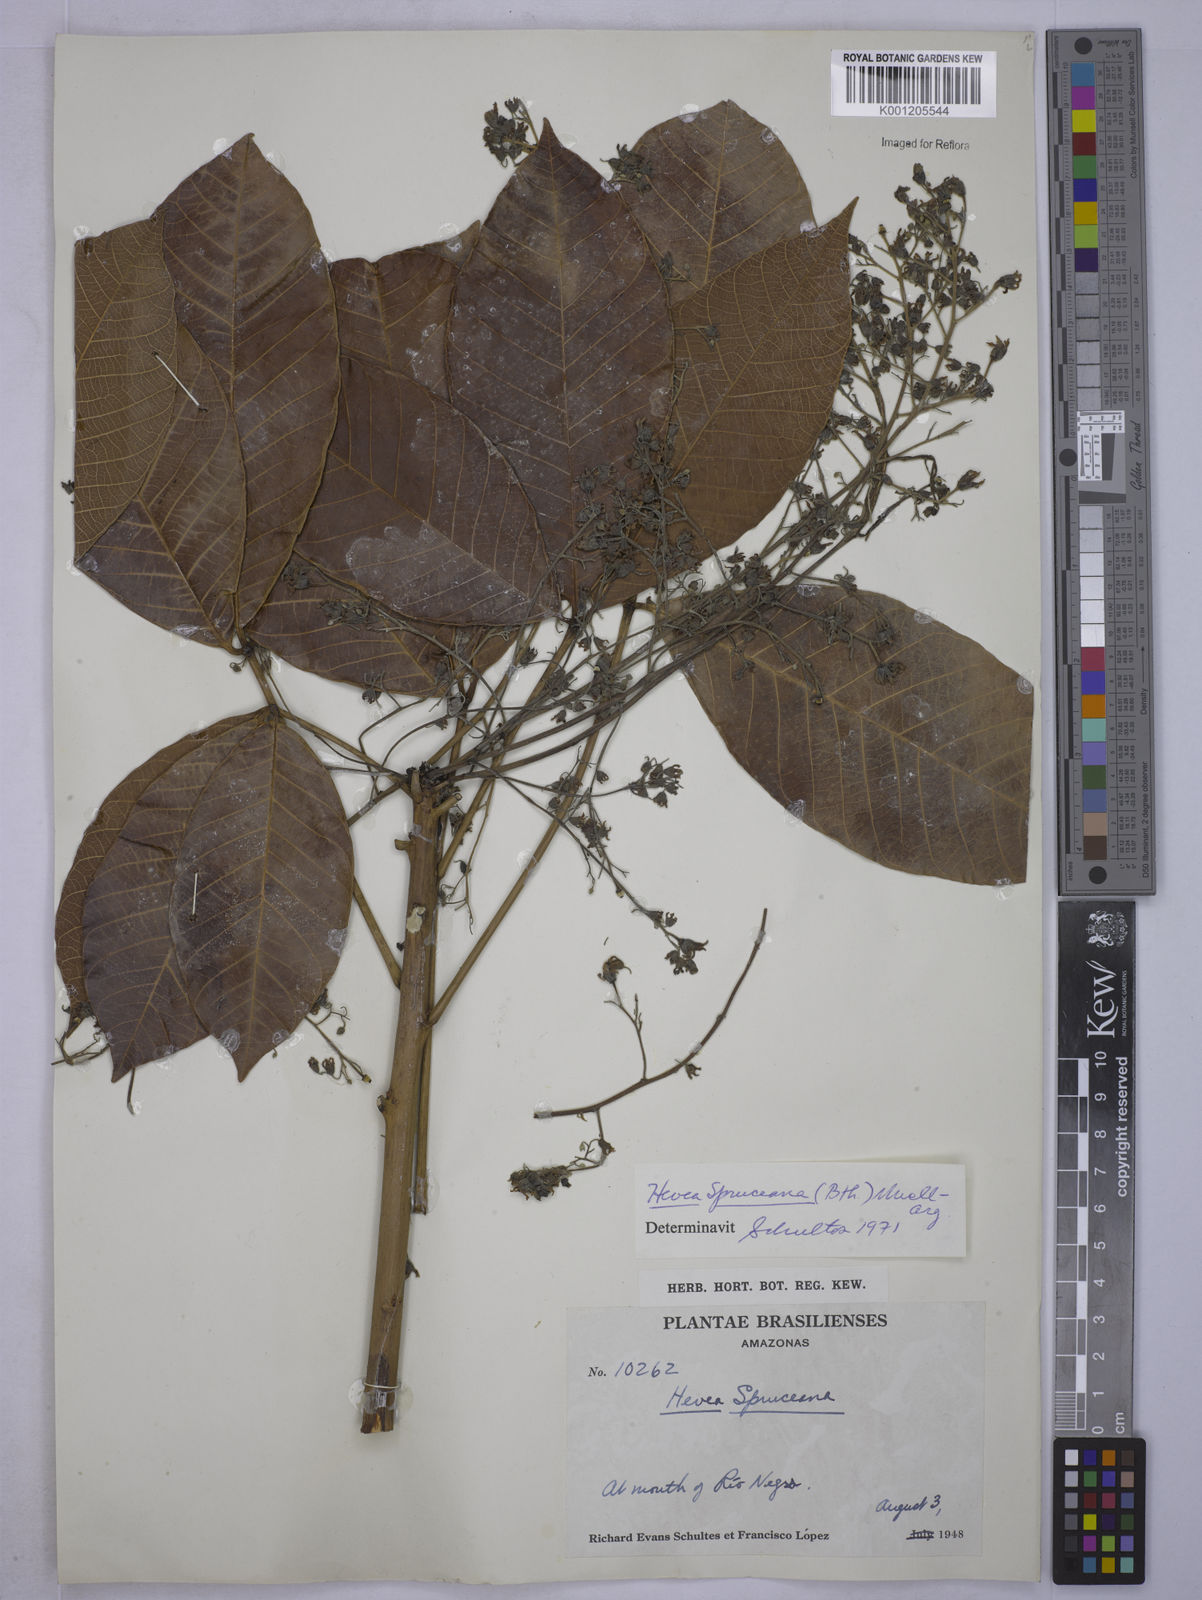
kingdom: Plantae
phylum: Tracheophyta
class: Magnoliopsida
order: Malpighiales
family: Euphorbiaceae
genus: Hevea
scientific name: Hevea
